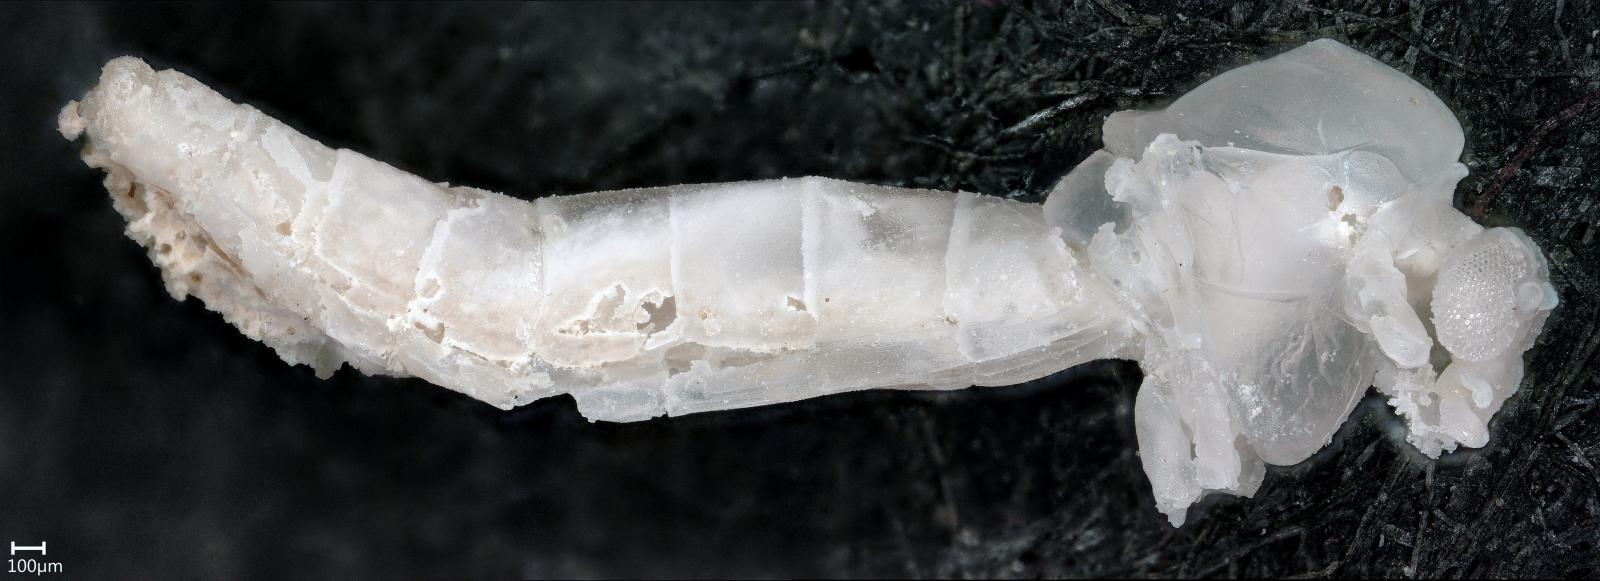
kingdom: Animalia
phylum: Arthropoda
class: Insecta
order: Diptera
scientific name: Diptera
